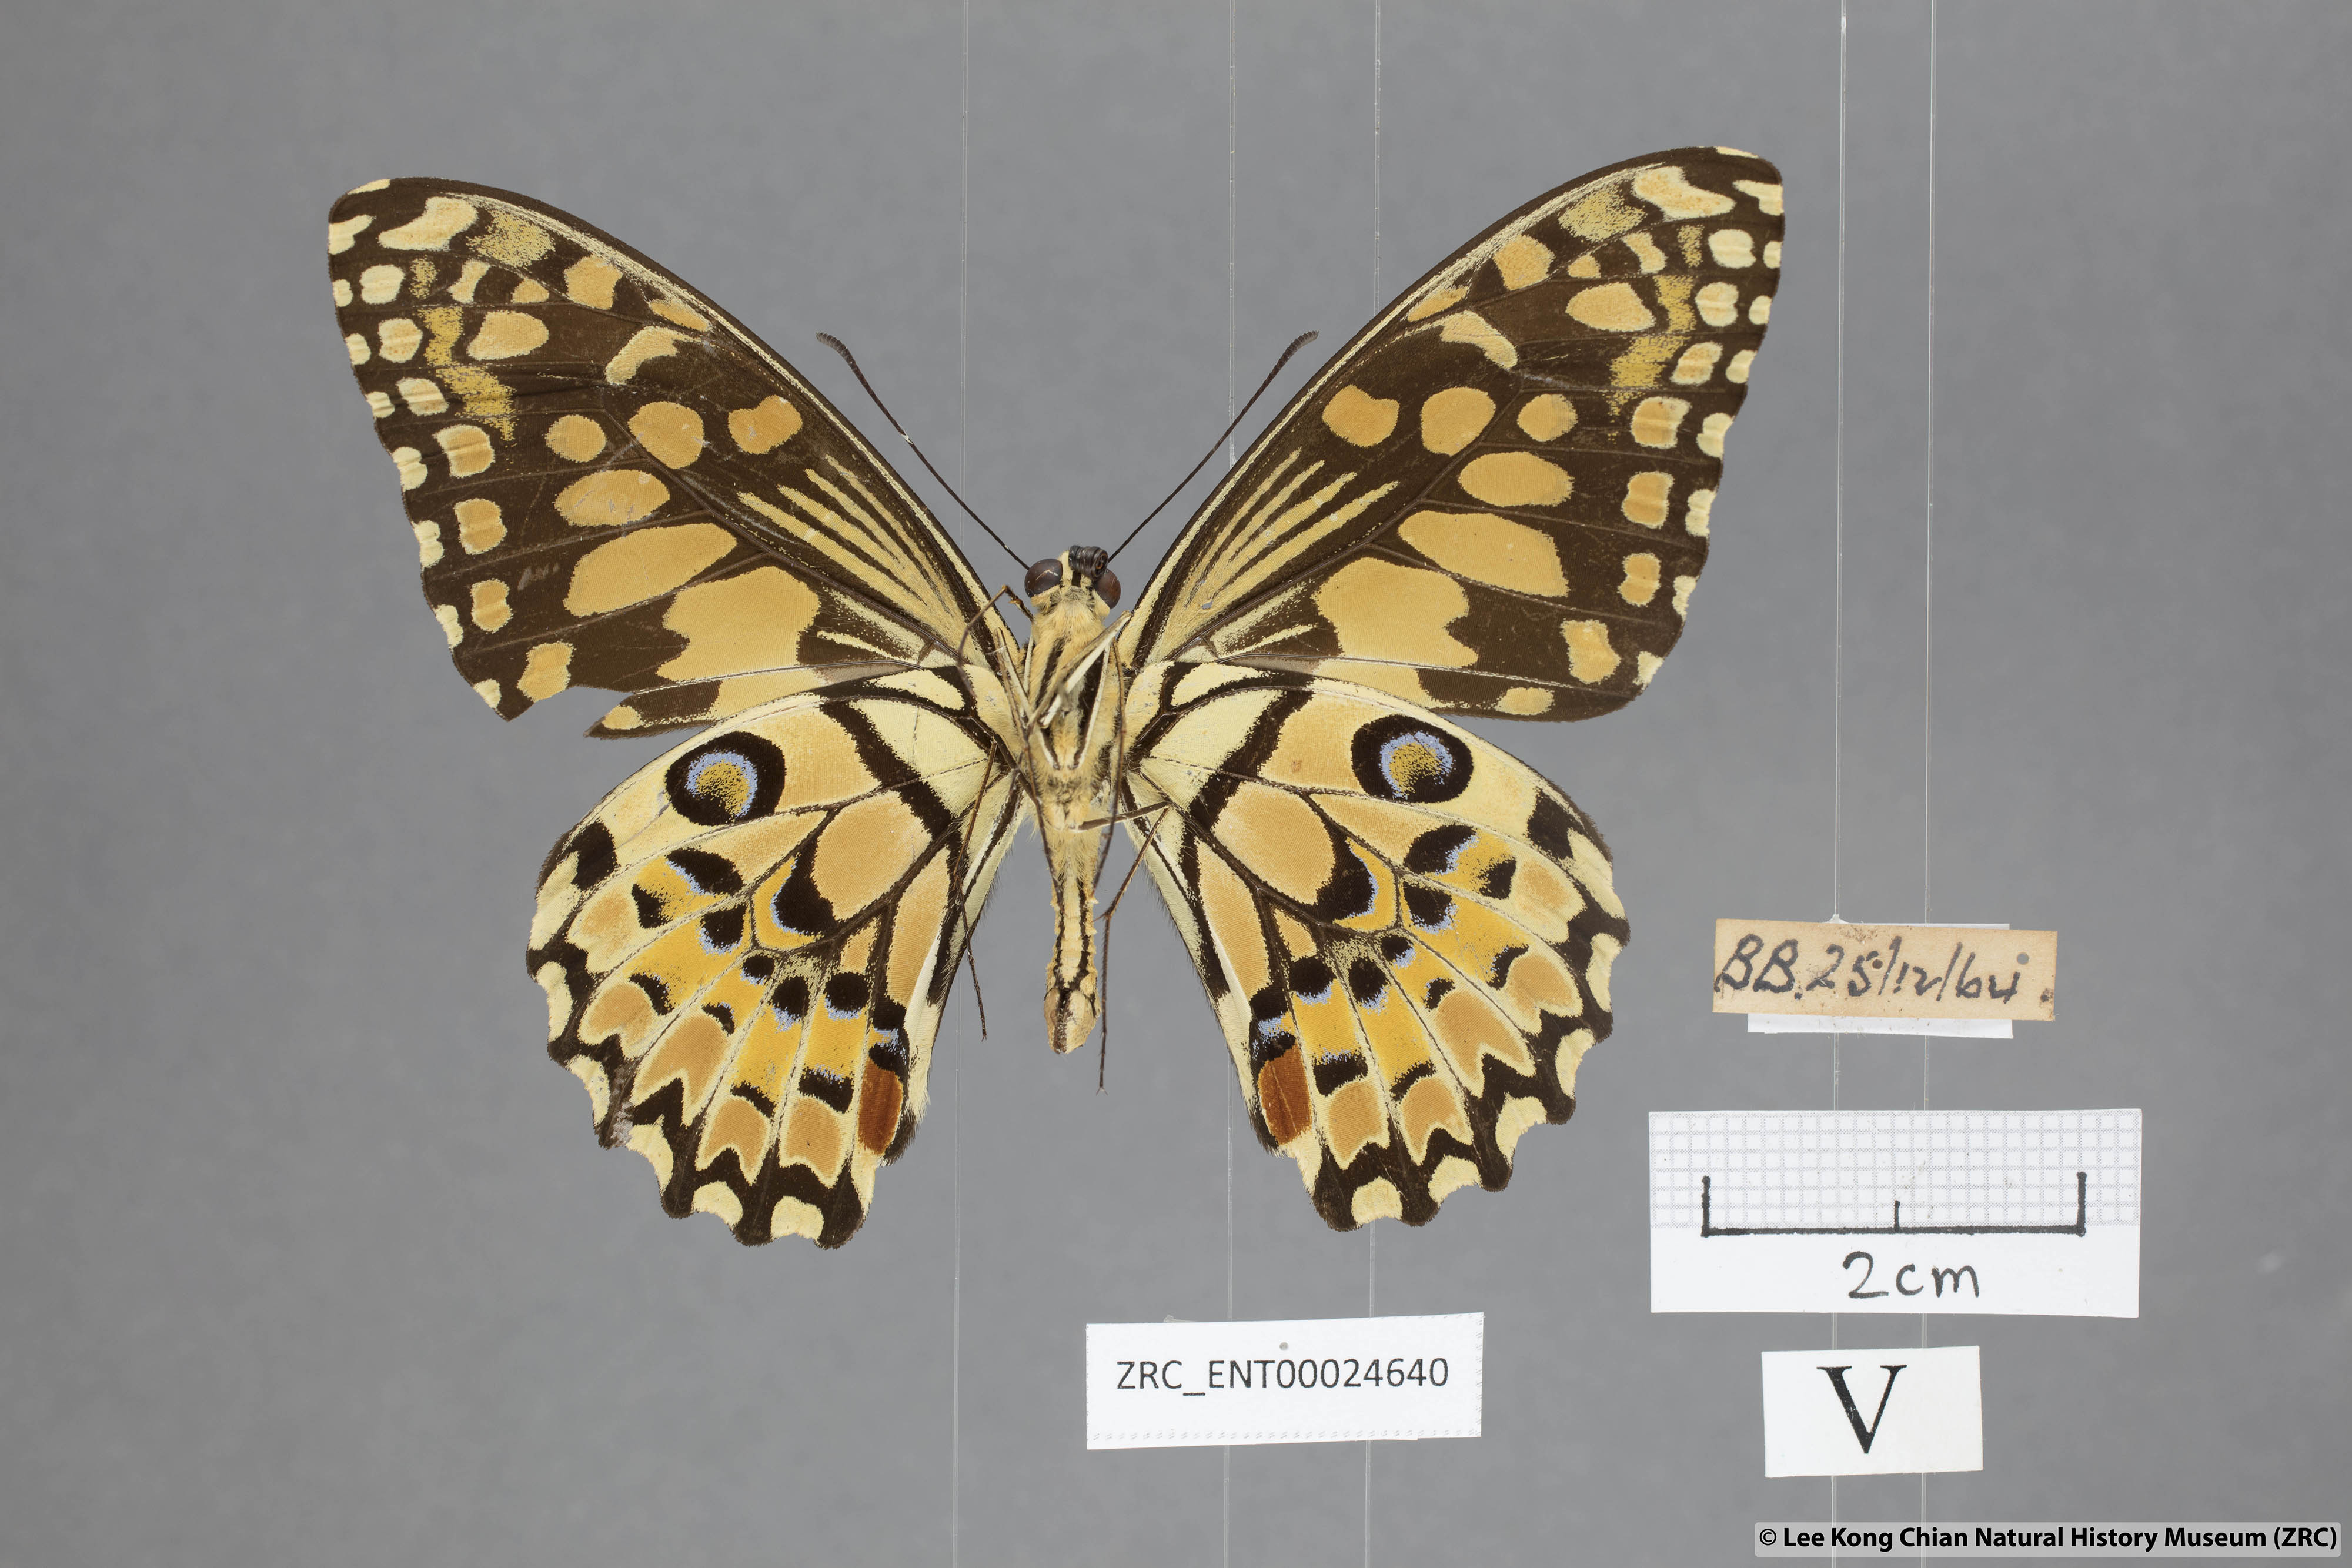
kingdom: Animalia
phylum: Arthropoda
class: Insecta
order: Lepidoptera
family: Papilionidae
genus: Papilio
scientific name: Papilio demoleus
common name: Lime butterfly
